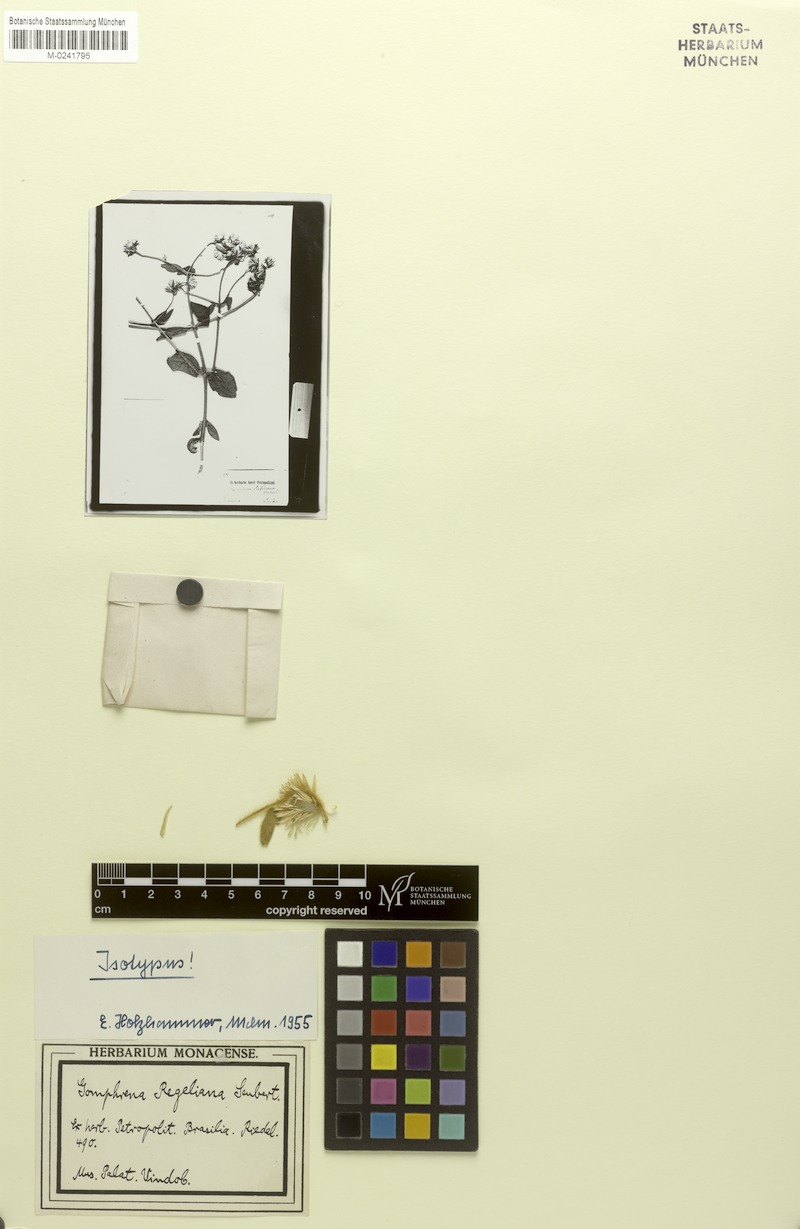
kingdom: Plantae
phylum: Tracheophyta
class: Magnoliopsida
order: Caryophyllales
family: Amaranthaceae
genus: Gomphrena
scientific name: Gomphrena regeliana
